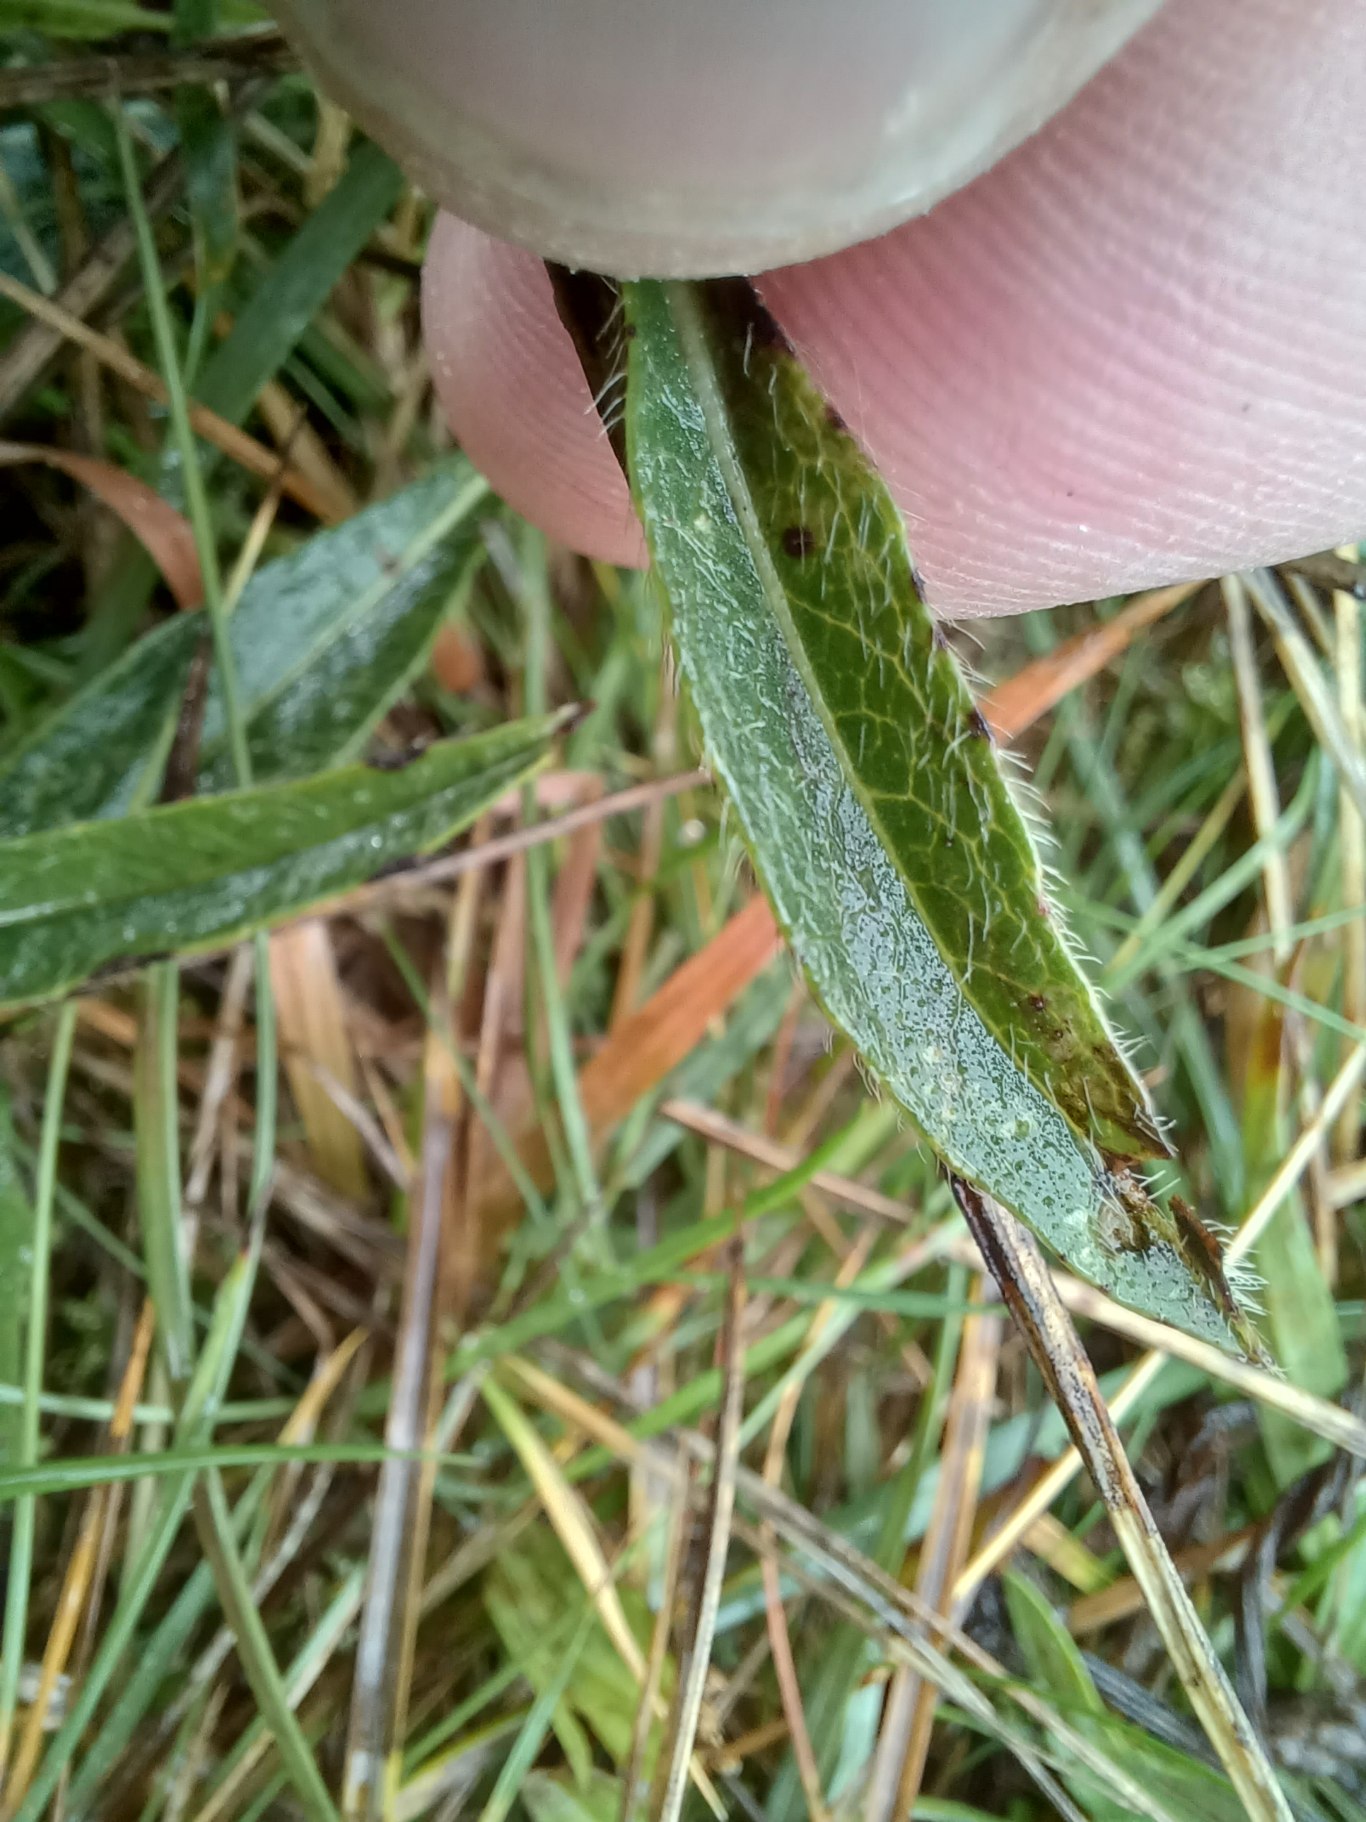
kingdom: Plantae
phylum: Tracheophyta
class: Magnoliopsida
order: Dipsacales
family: Caprifoliaceae
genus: Succisa
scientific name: Succisa pratensis
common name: Djævelsbid
